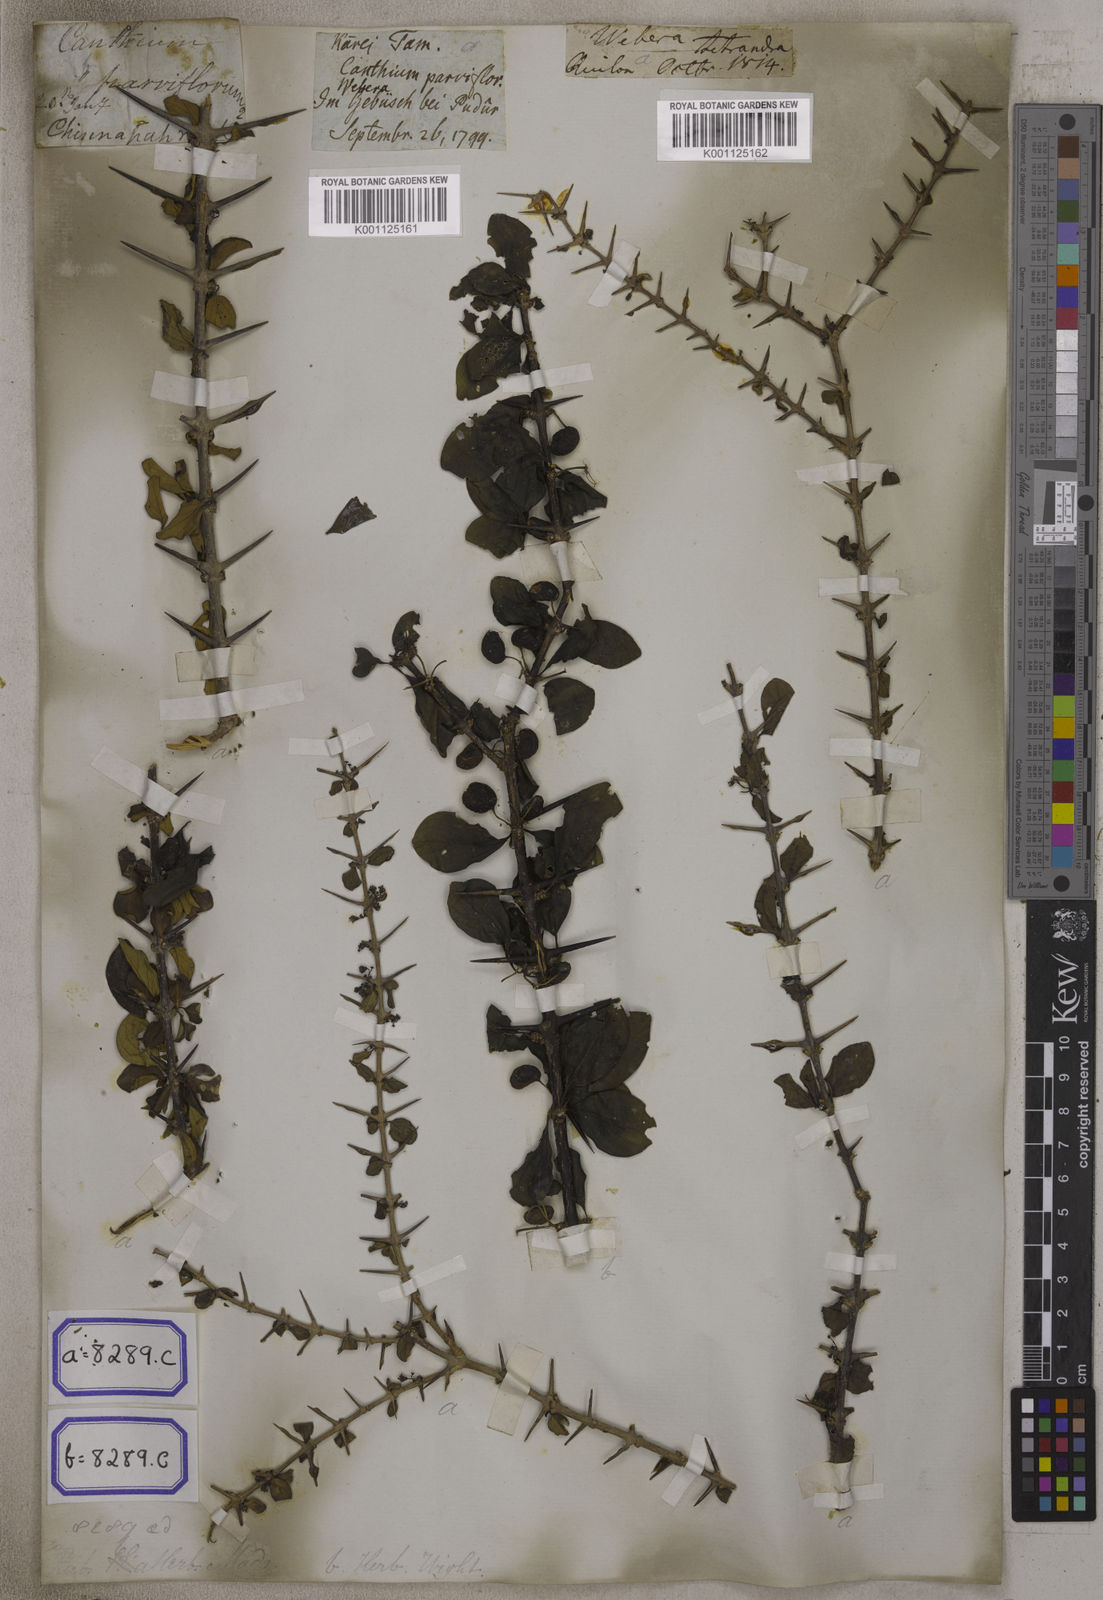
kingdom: Plantae
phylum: Tracheophyta
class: Magnoliopsida
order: Gentianales
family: Rubiaceae
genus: Canthium
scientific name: Canthium
